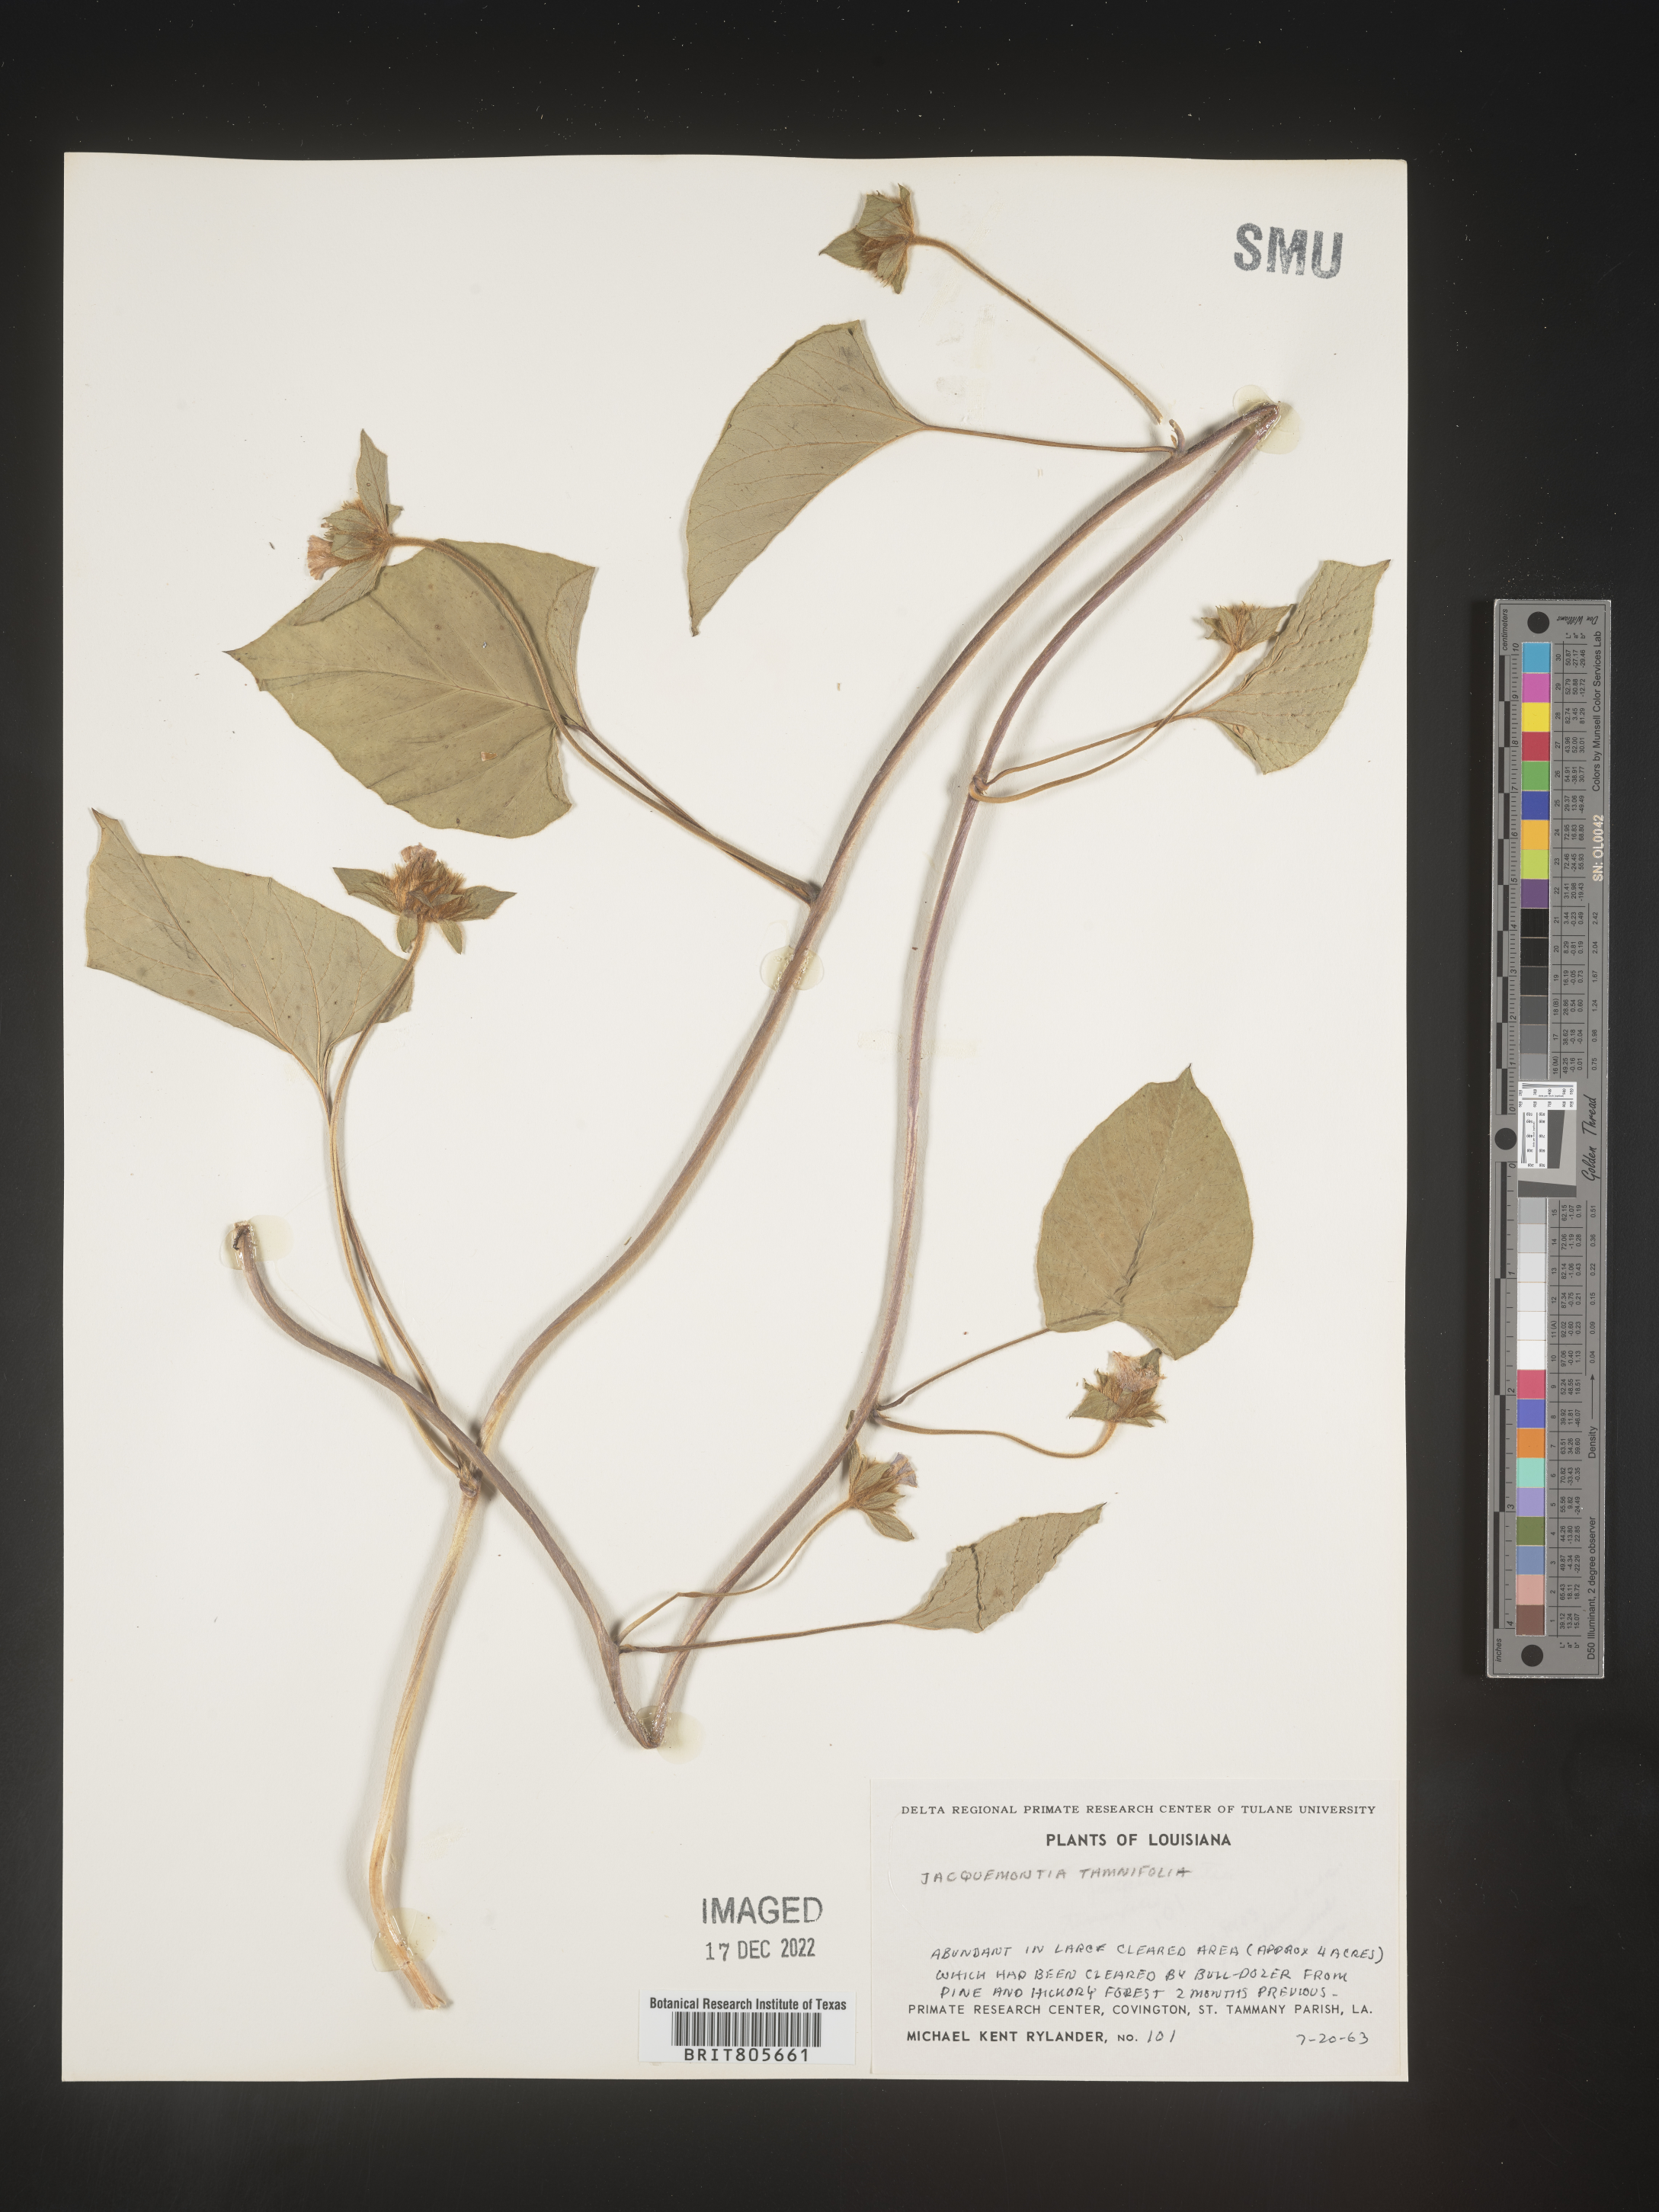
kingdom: Plantae
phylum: Tracheophyta
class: Magnoliopsida
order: Solanales
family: Convolvulaceae
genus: Jacquemontia
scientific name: Jacquemontia tamnifolia
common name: Hairy clustervine
